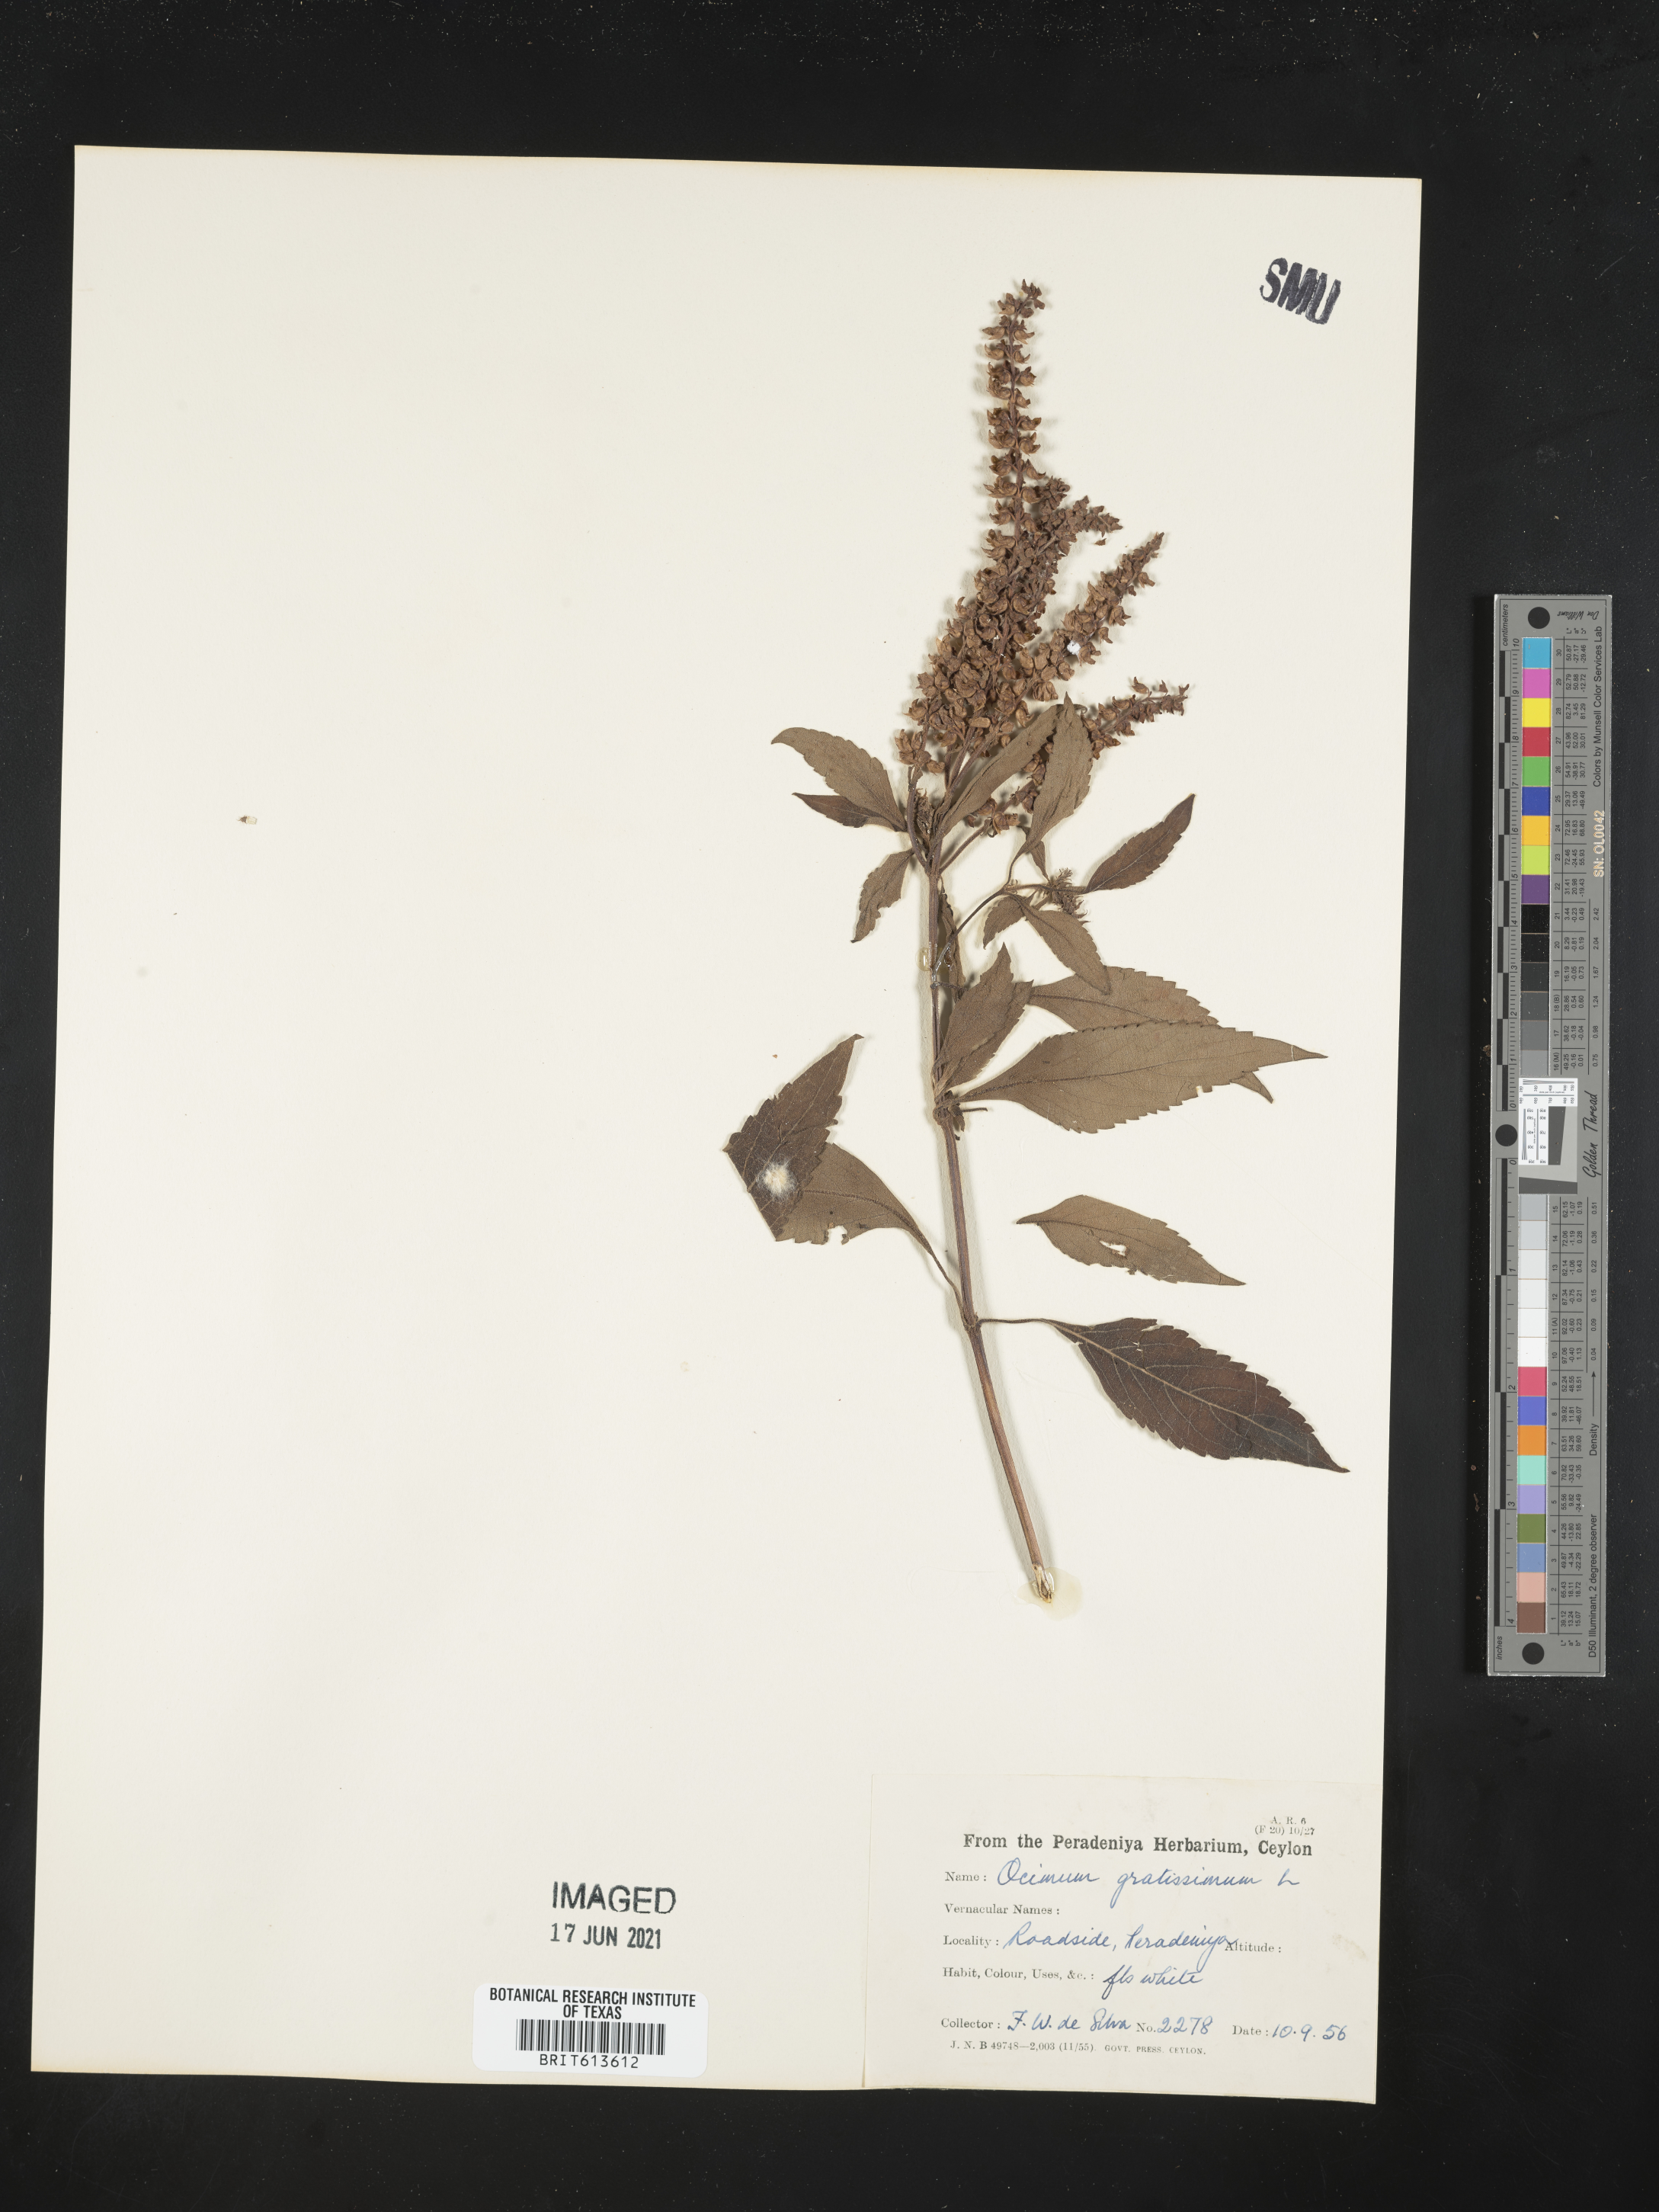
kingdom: Plantae
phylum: Tracheophyta
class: Magnoliopsida
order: Lamiales
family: Lamiaceae
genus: Ocimum
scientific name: Ocimum gratissimum
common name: African basil
